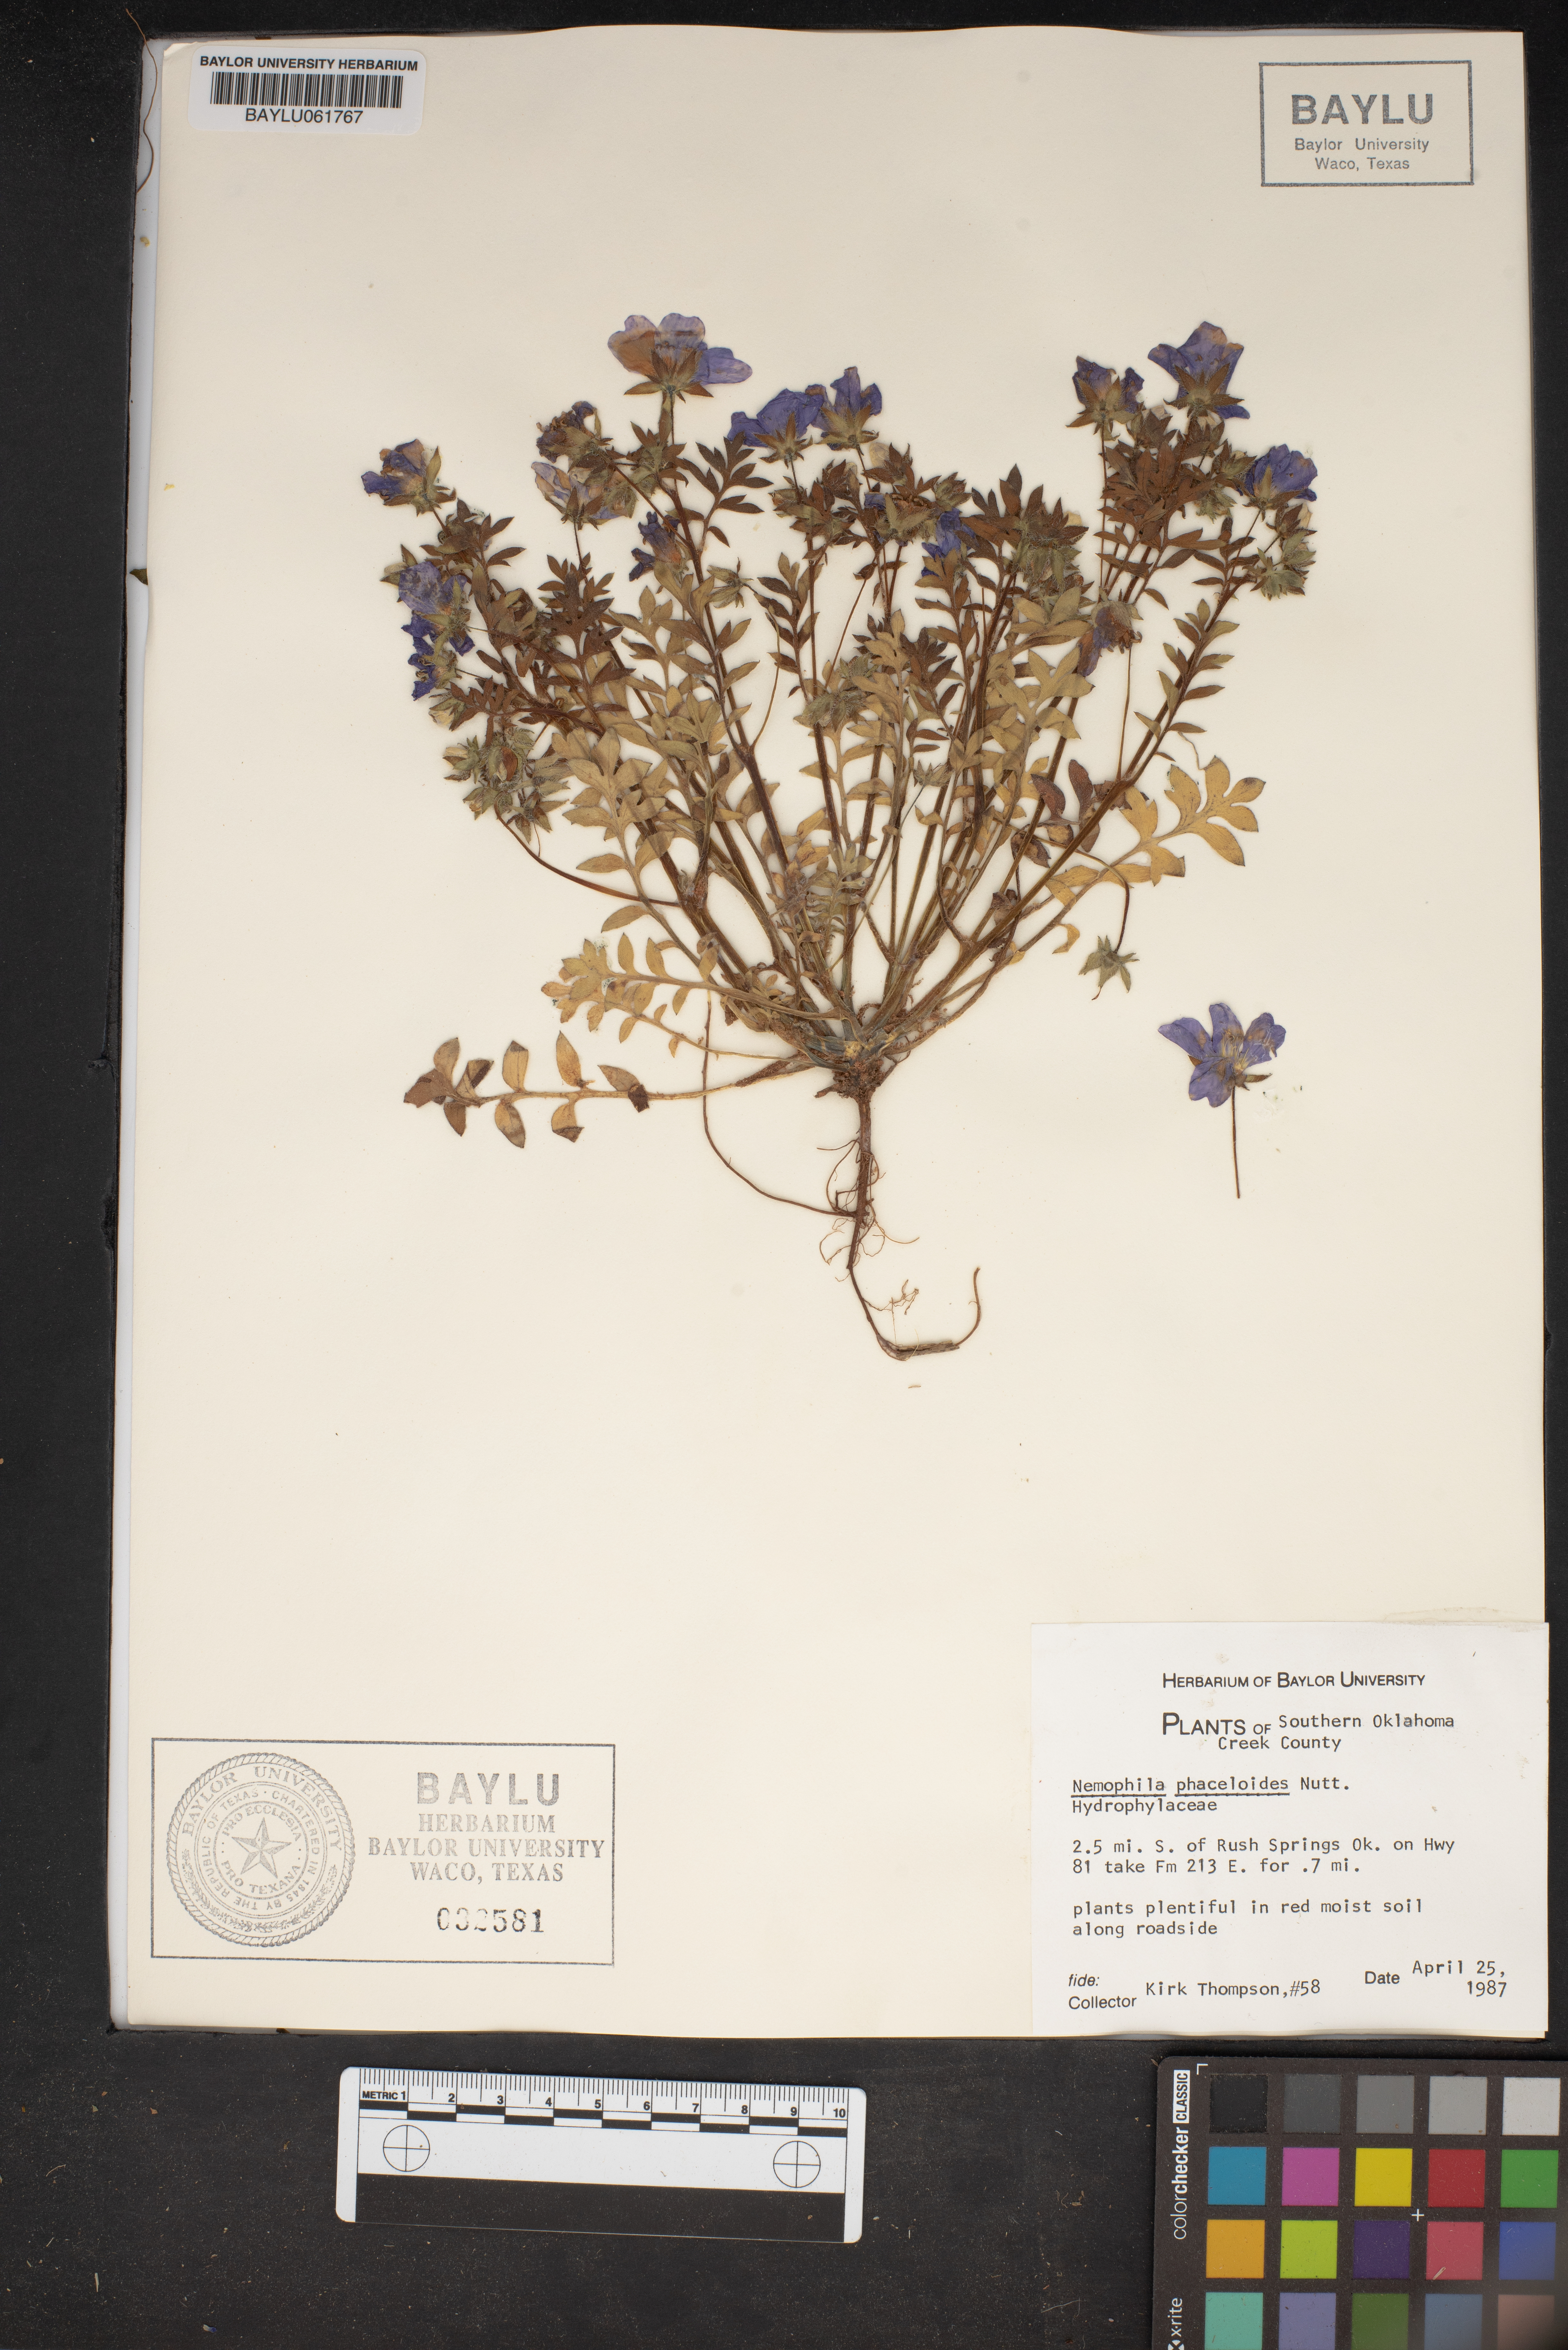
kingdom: Plantae
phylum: Tracheophyta
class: Magnoliopsida
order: Boraginales
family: Hydrophyllaceae
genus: Nemophila
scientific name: Nemophila phacelioides
